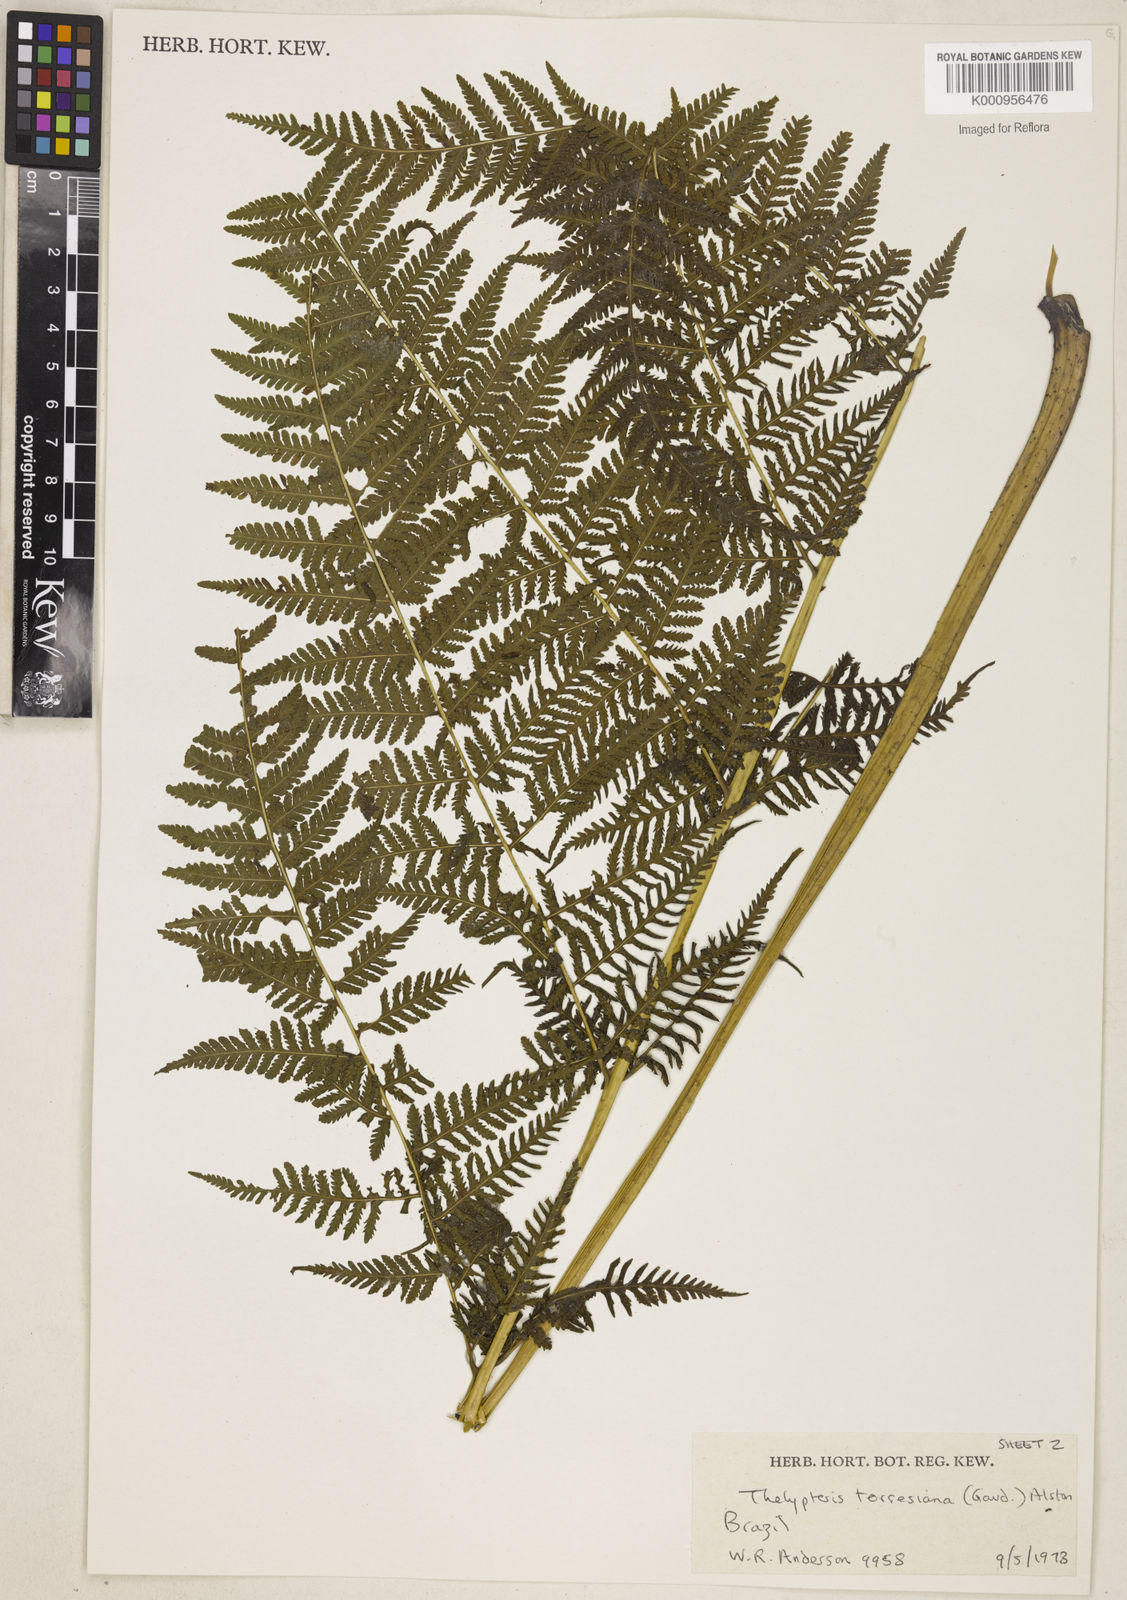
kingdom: Plantae
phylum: Tracheophyta
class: Polypodiopsida
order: Polypodiales
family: Thelypteridaceae
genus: Macrothelypteris
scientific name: Macrothelypteris torresiana
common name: Swordfern
